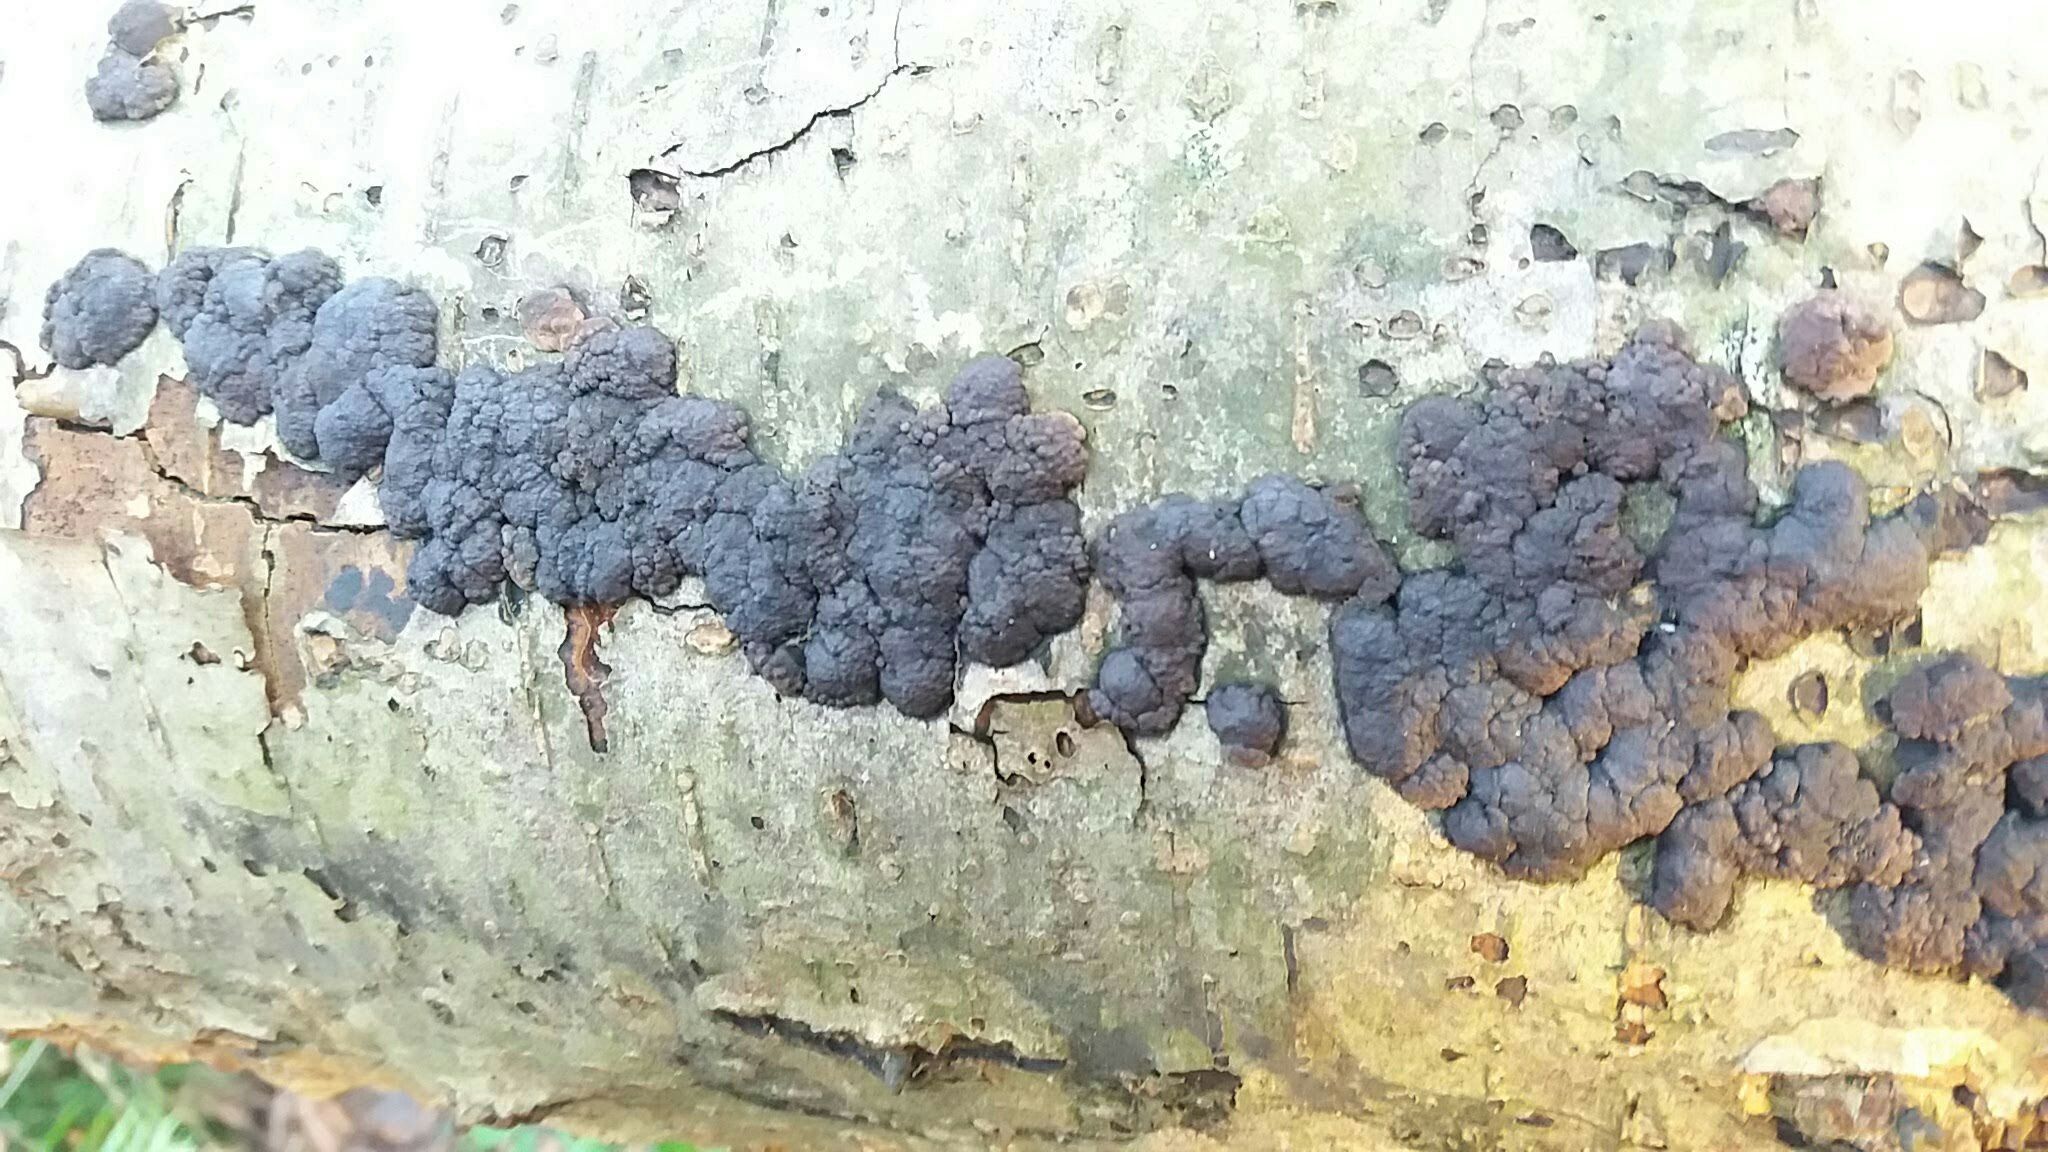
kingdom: Fungi
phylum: Ascomycota
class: Sordariomycetes
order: Xylariales
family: Hypoxylaceae
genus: Jackrogersella
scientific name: Jackrogersella cohaerens
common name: sammenflydende kulbær
